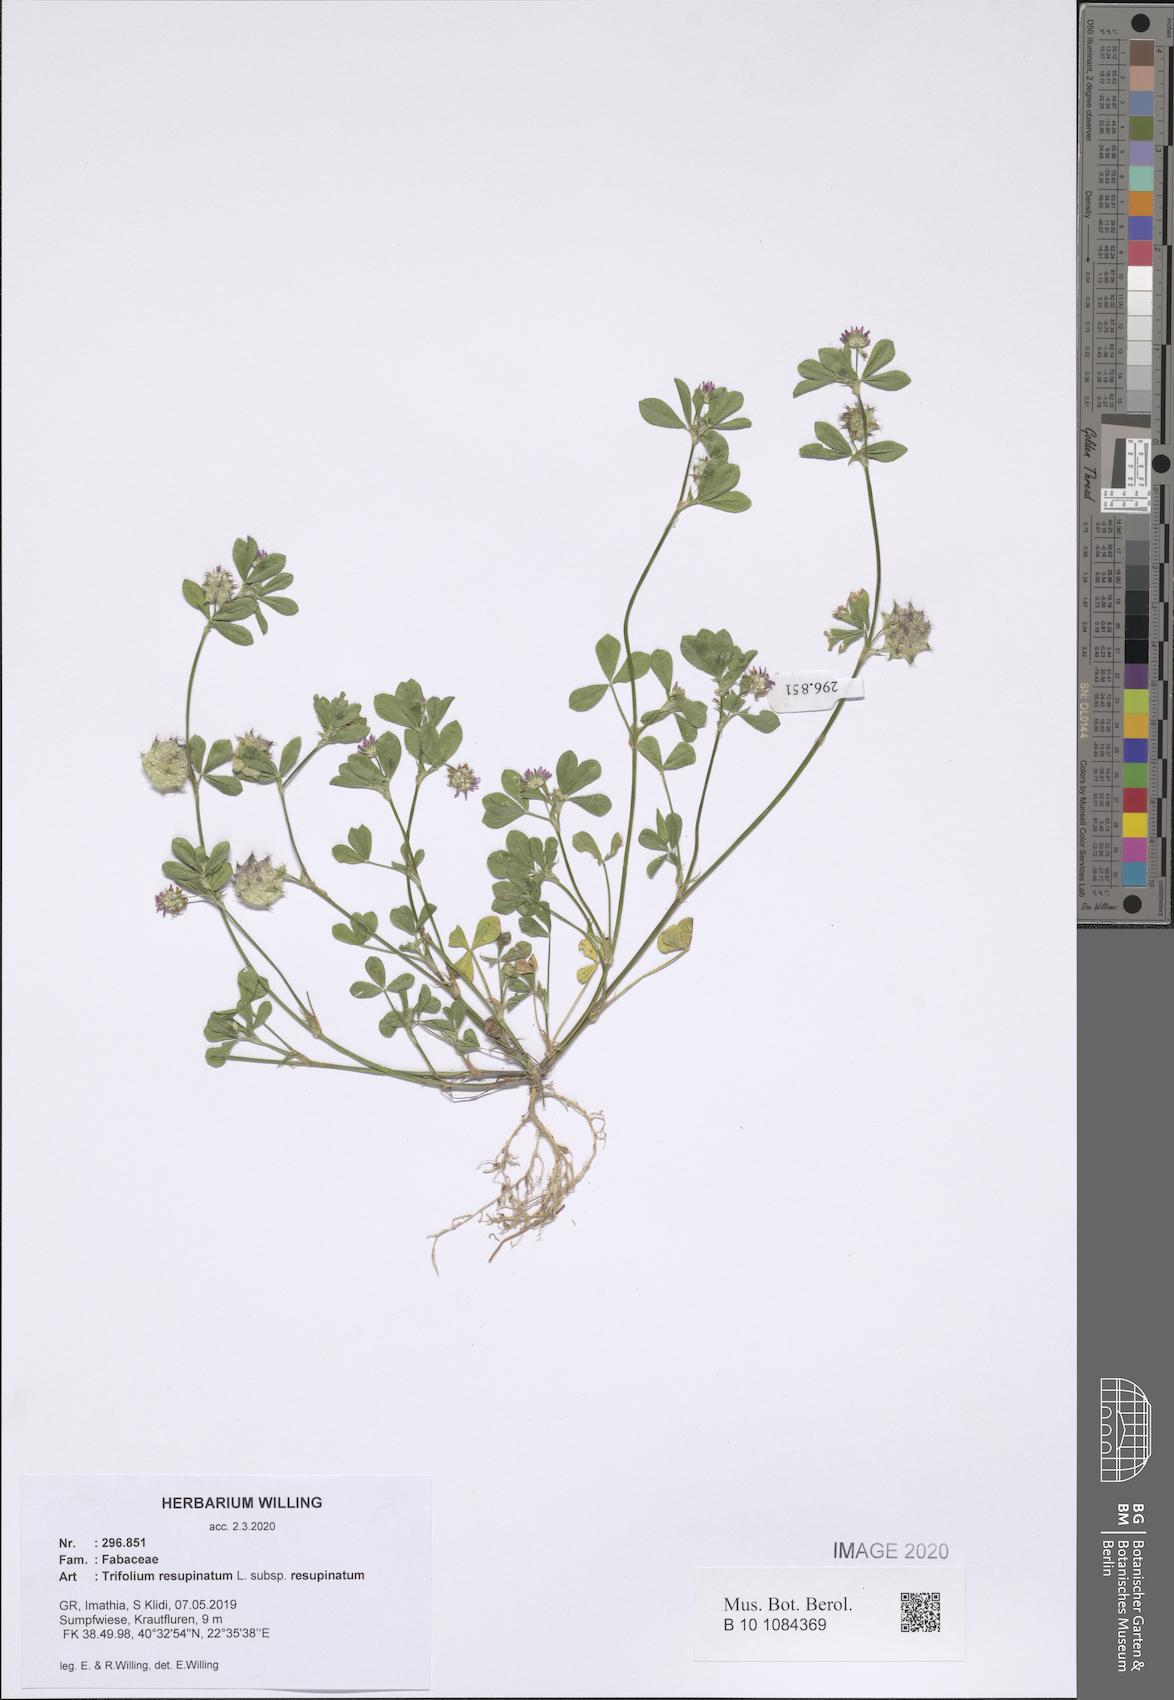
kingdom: Plantae
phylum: Tracheophyta
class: Magnoliopsida
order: Fabales
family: Fabaceae
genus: Trifolium
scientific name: Trifolium resupinatum
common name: Reversed clover
